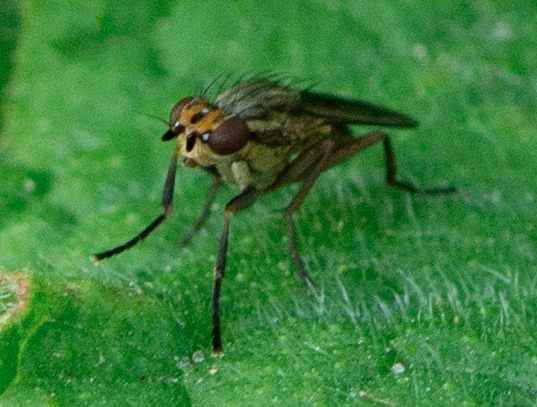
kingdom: Animalia
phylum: Arthropoda
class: Insecta
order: Diptera
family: Sciomyzidae
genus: Pherbellia
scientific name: Pherbellia cinerella
